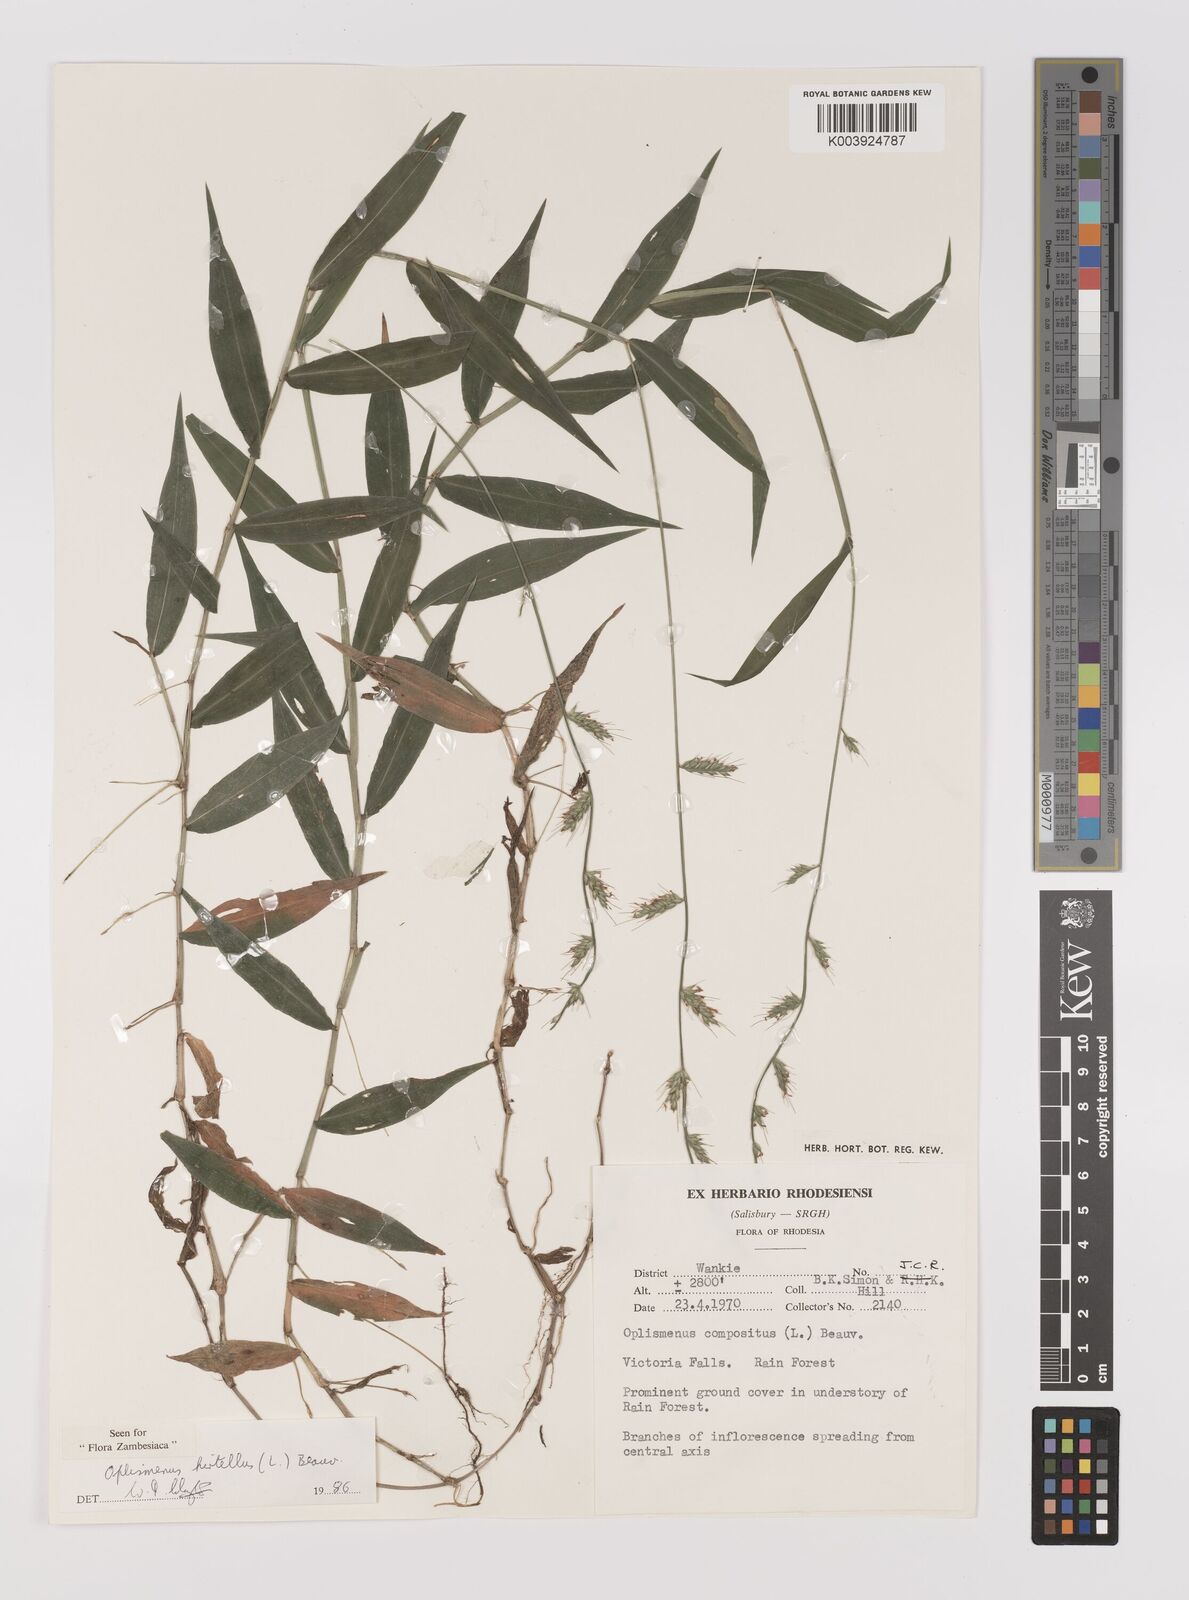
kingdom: Plantae
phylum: Tracheophyta
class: Liliopsida
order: Poales
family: Poaceae
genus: Oplismenus
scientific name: Oplismenus hirtellus
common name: Basketgrass
